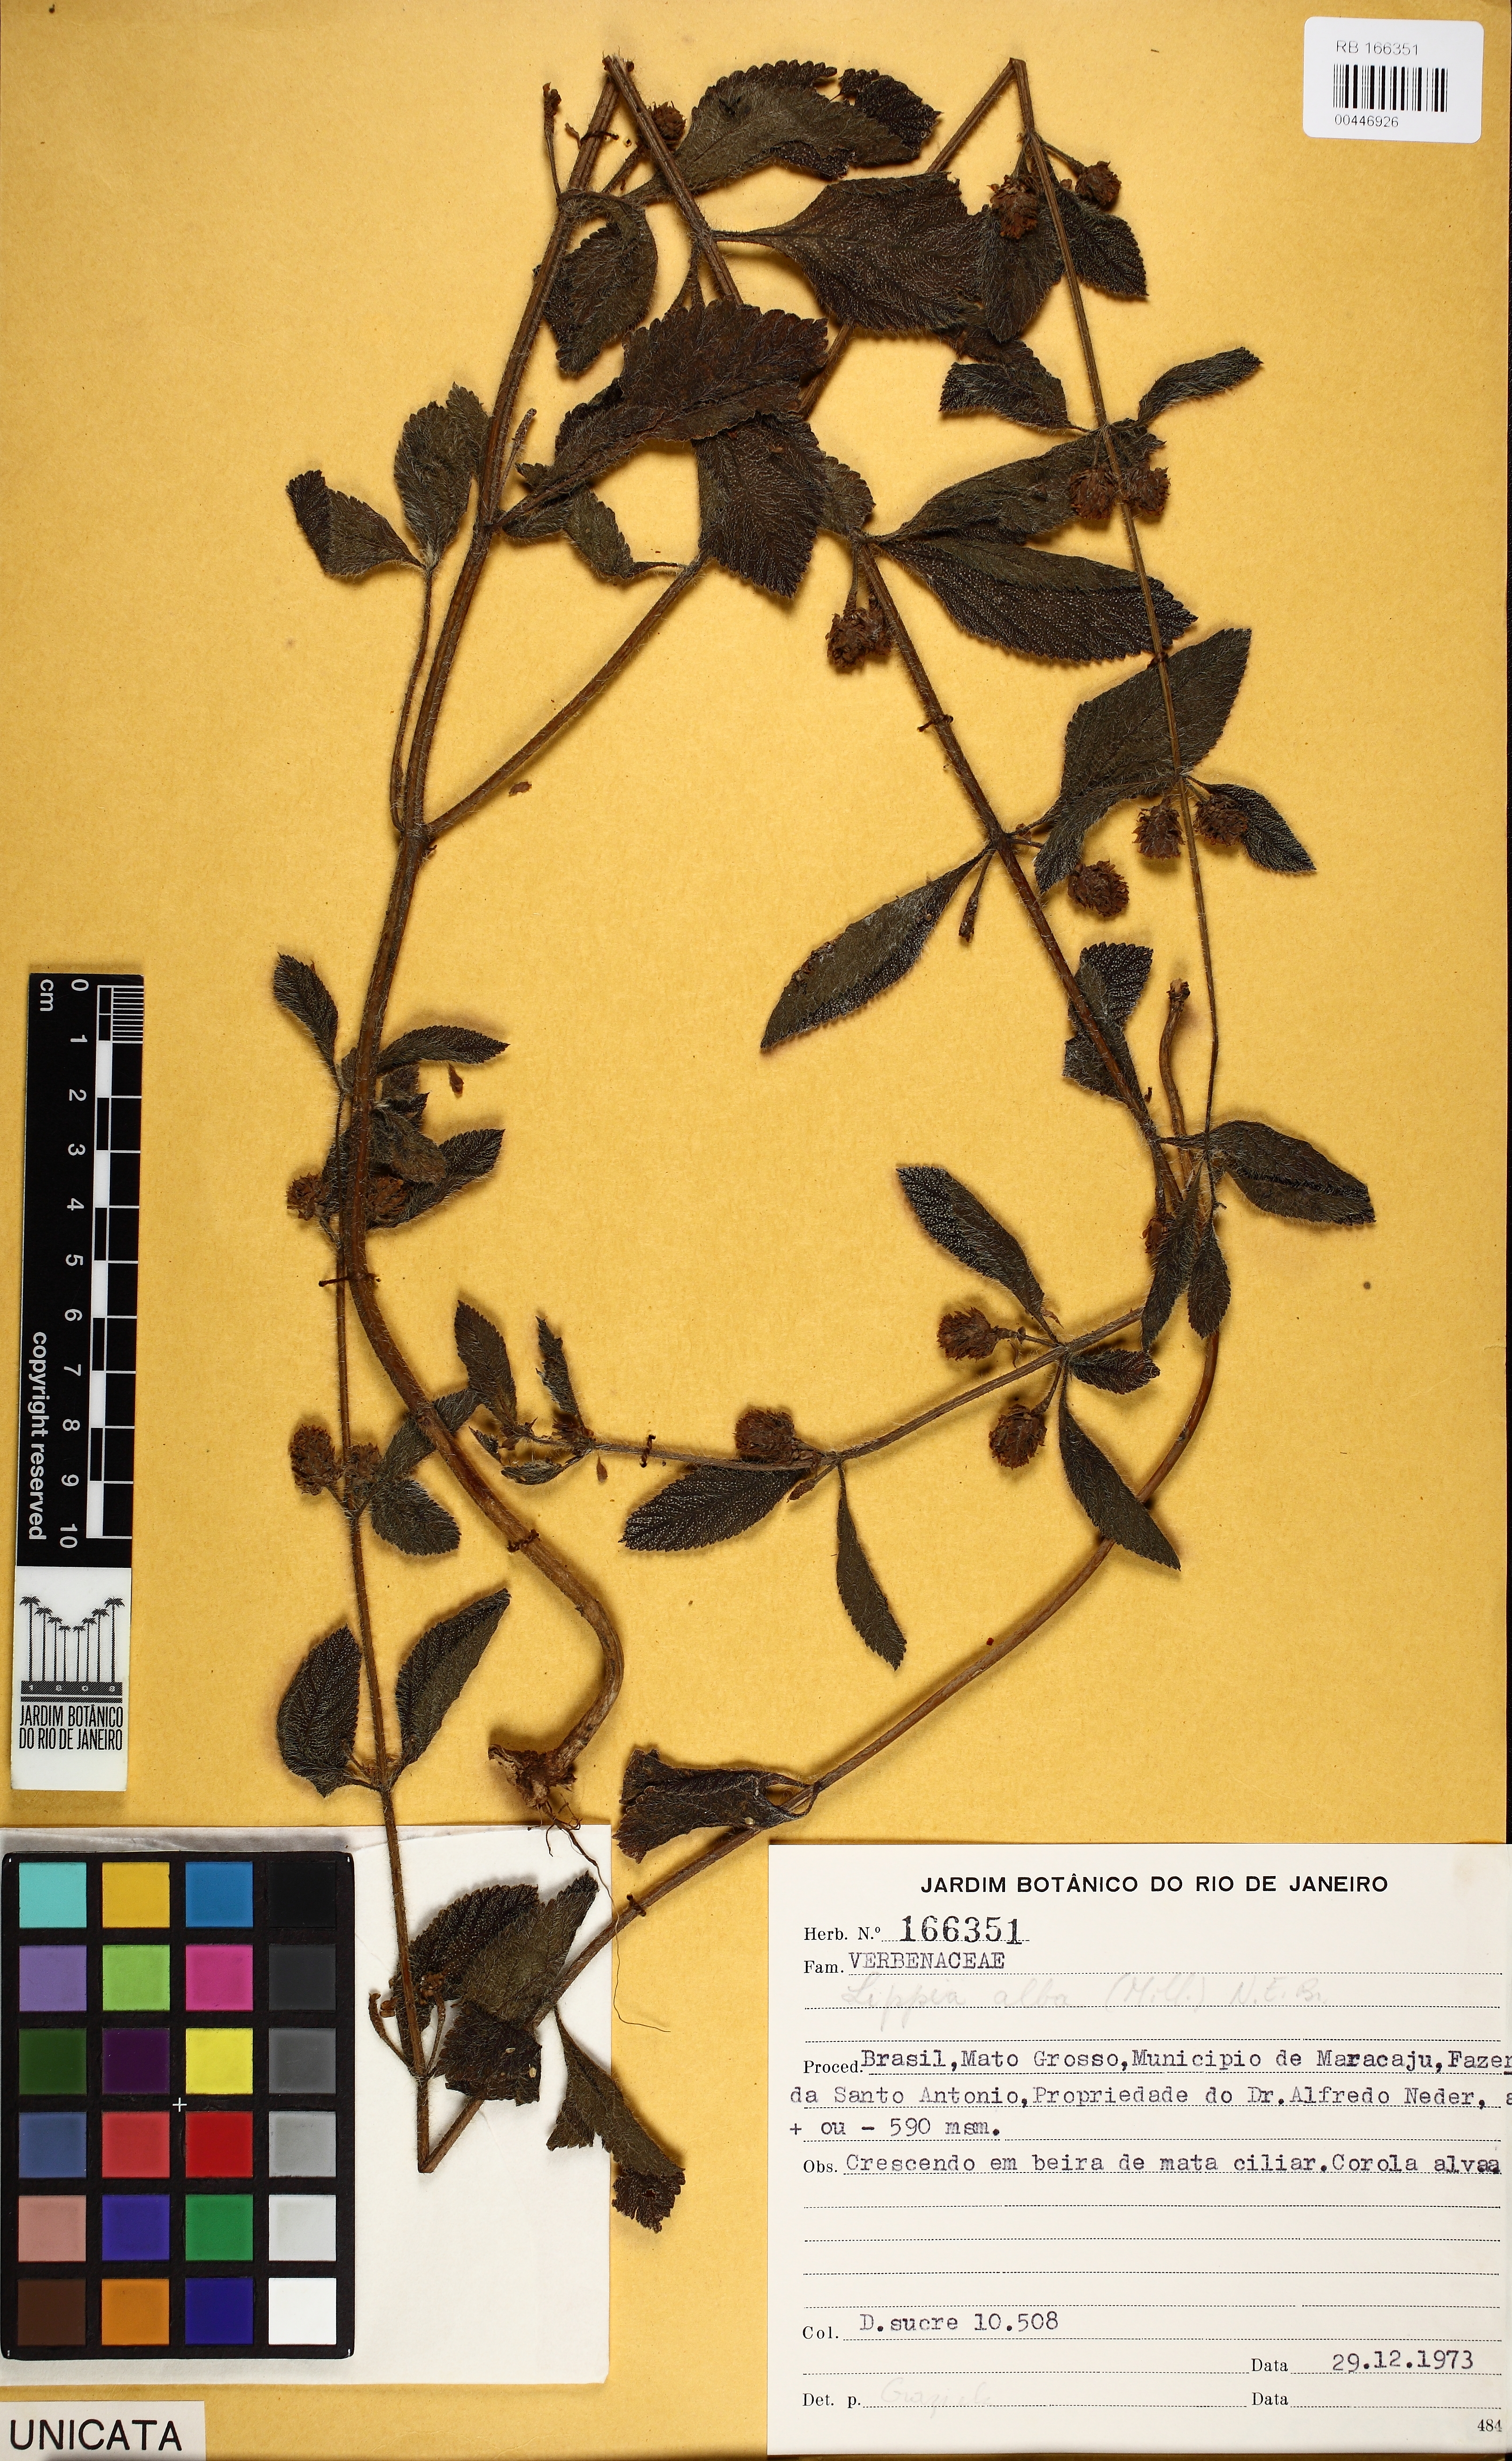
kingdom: Plantae
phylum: Tracheophyta
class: Magnoliopsida
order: Lamiales
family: Verbenaceae
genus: Lippia
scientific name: Lippia alba
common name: Bushy matgrass
